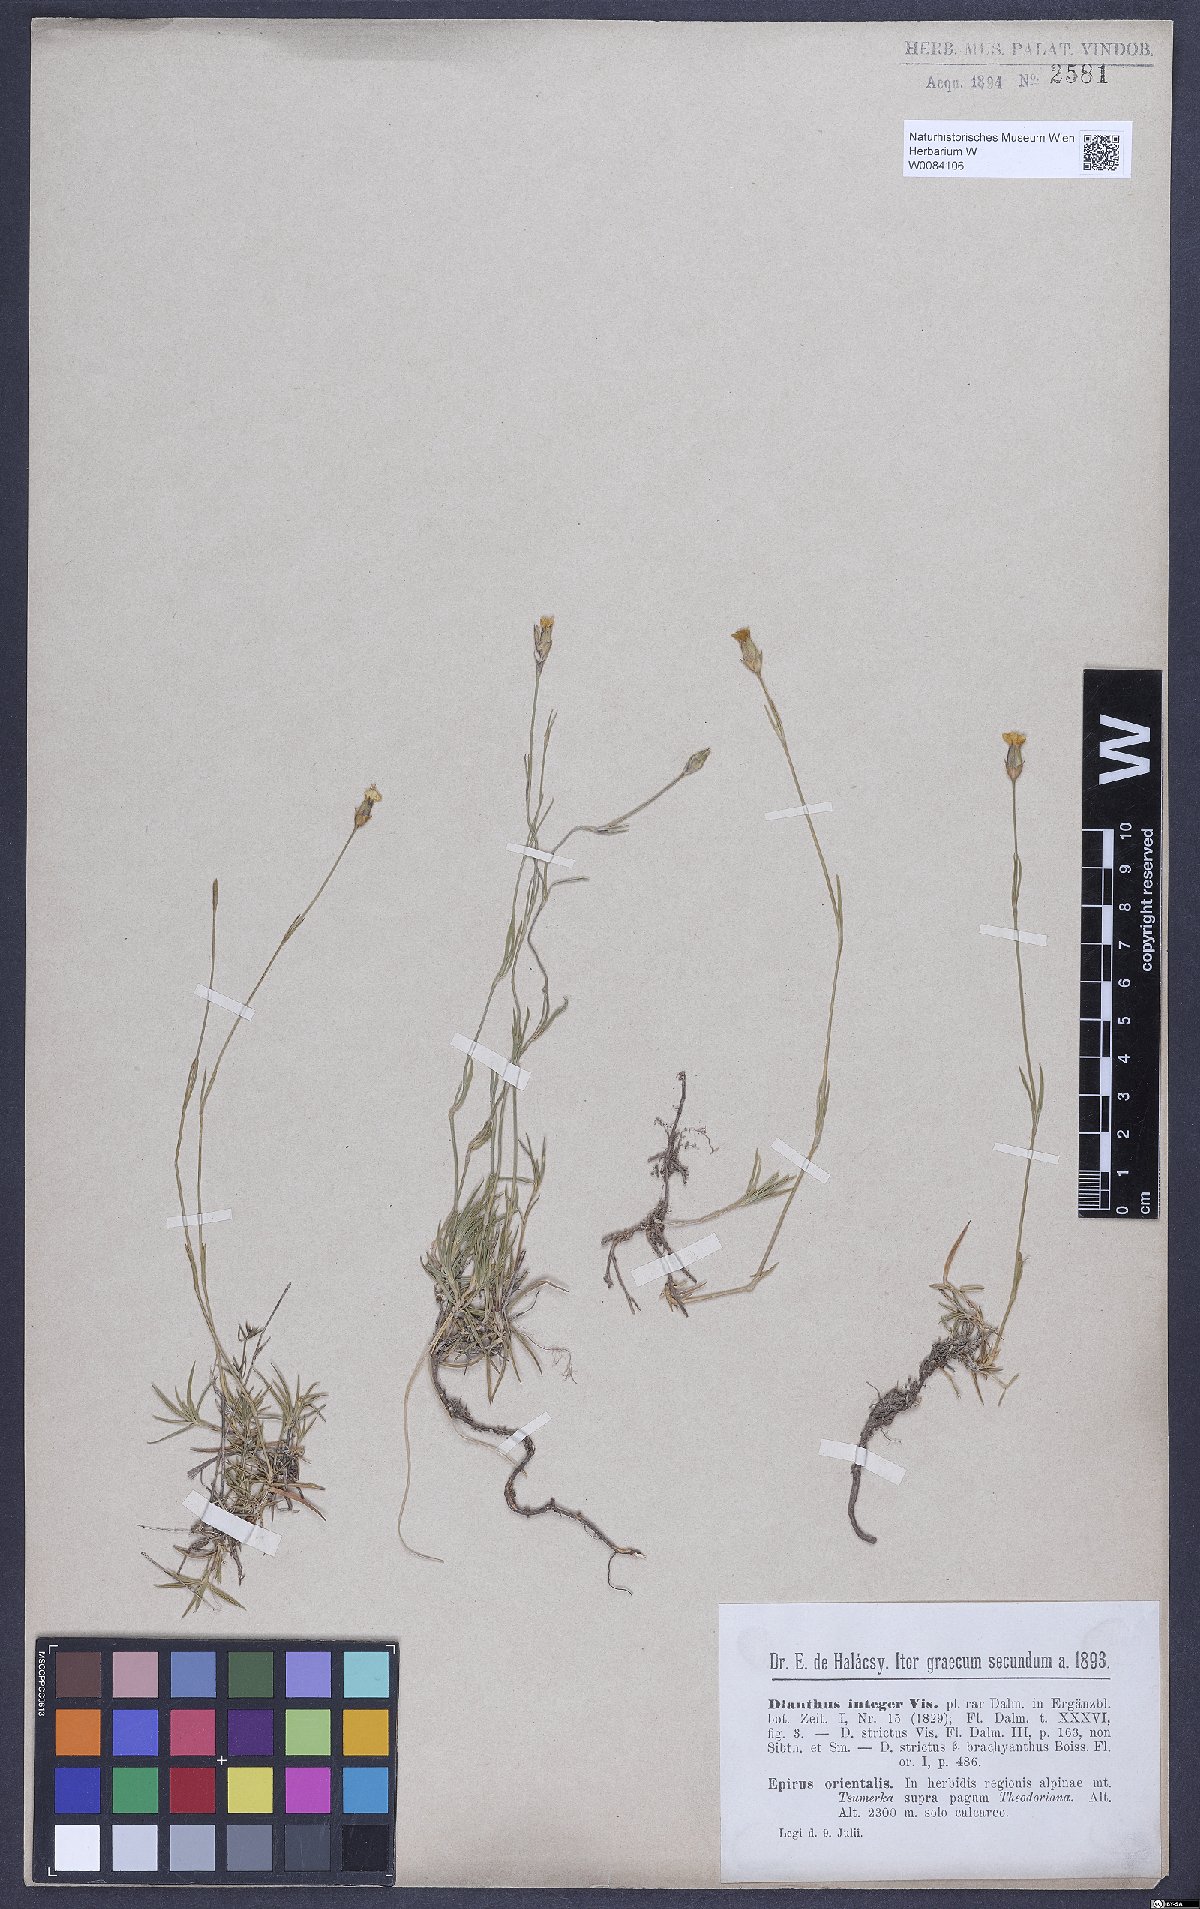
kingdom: Plantae
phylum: Tracheophyta
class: Magnoliopsida
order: Caryophyllales
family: Caryophyllaceae
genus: Dianthus
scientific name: Dianthus integer
